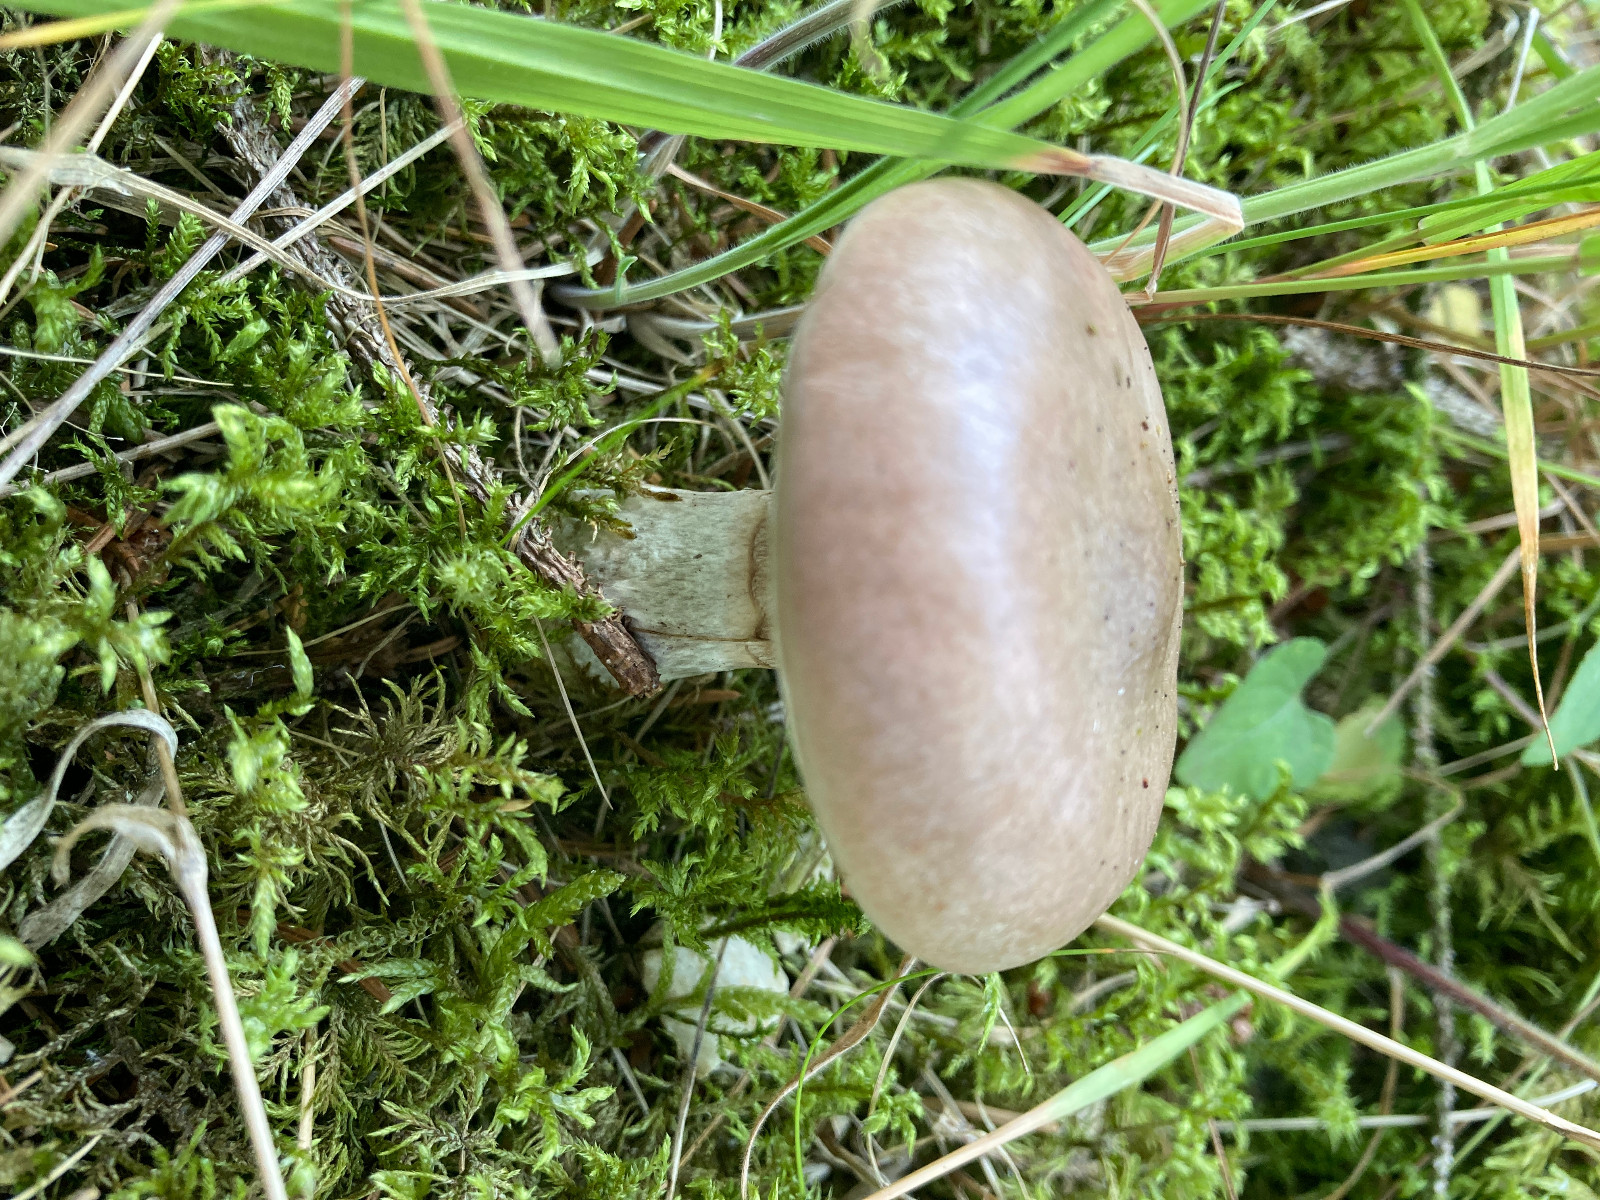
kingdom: Fungi
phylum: Basidiomycota
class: Agaricomycetes
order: Boletales
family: Gomphidiaceae
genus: Gomphidius
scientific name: Gomphidius glutinosus
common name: grå slimslør
